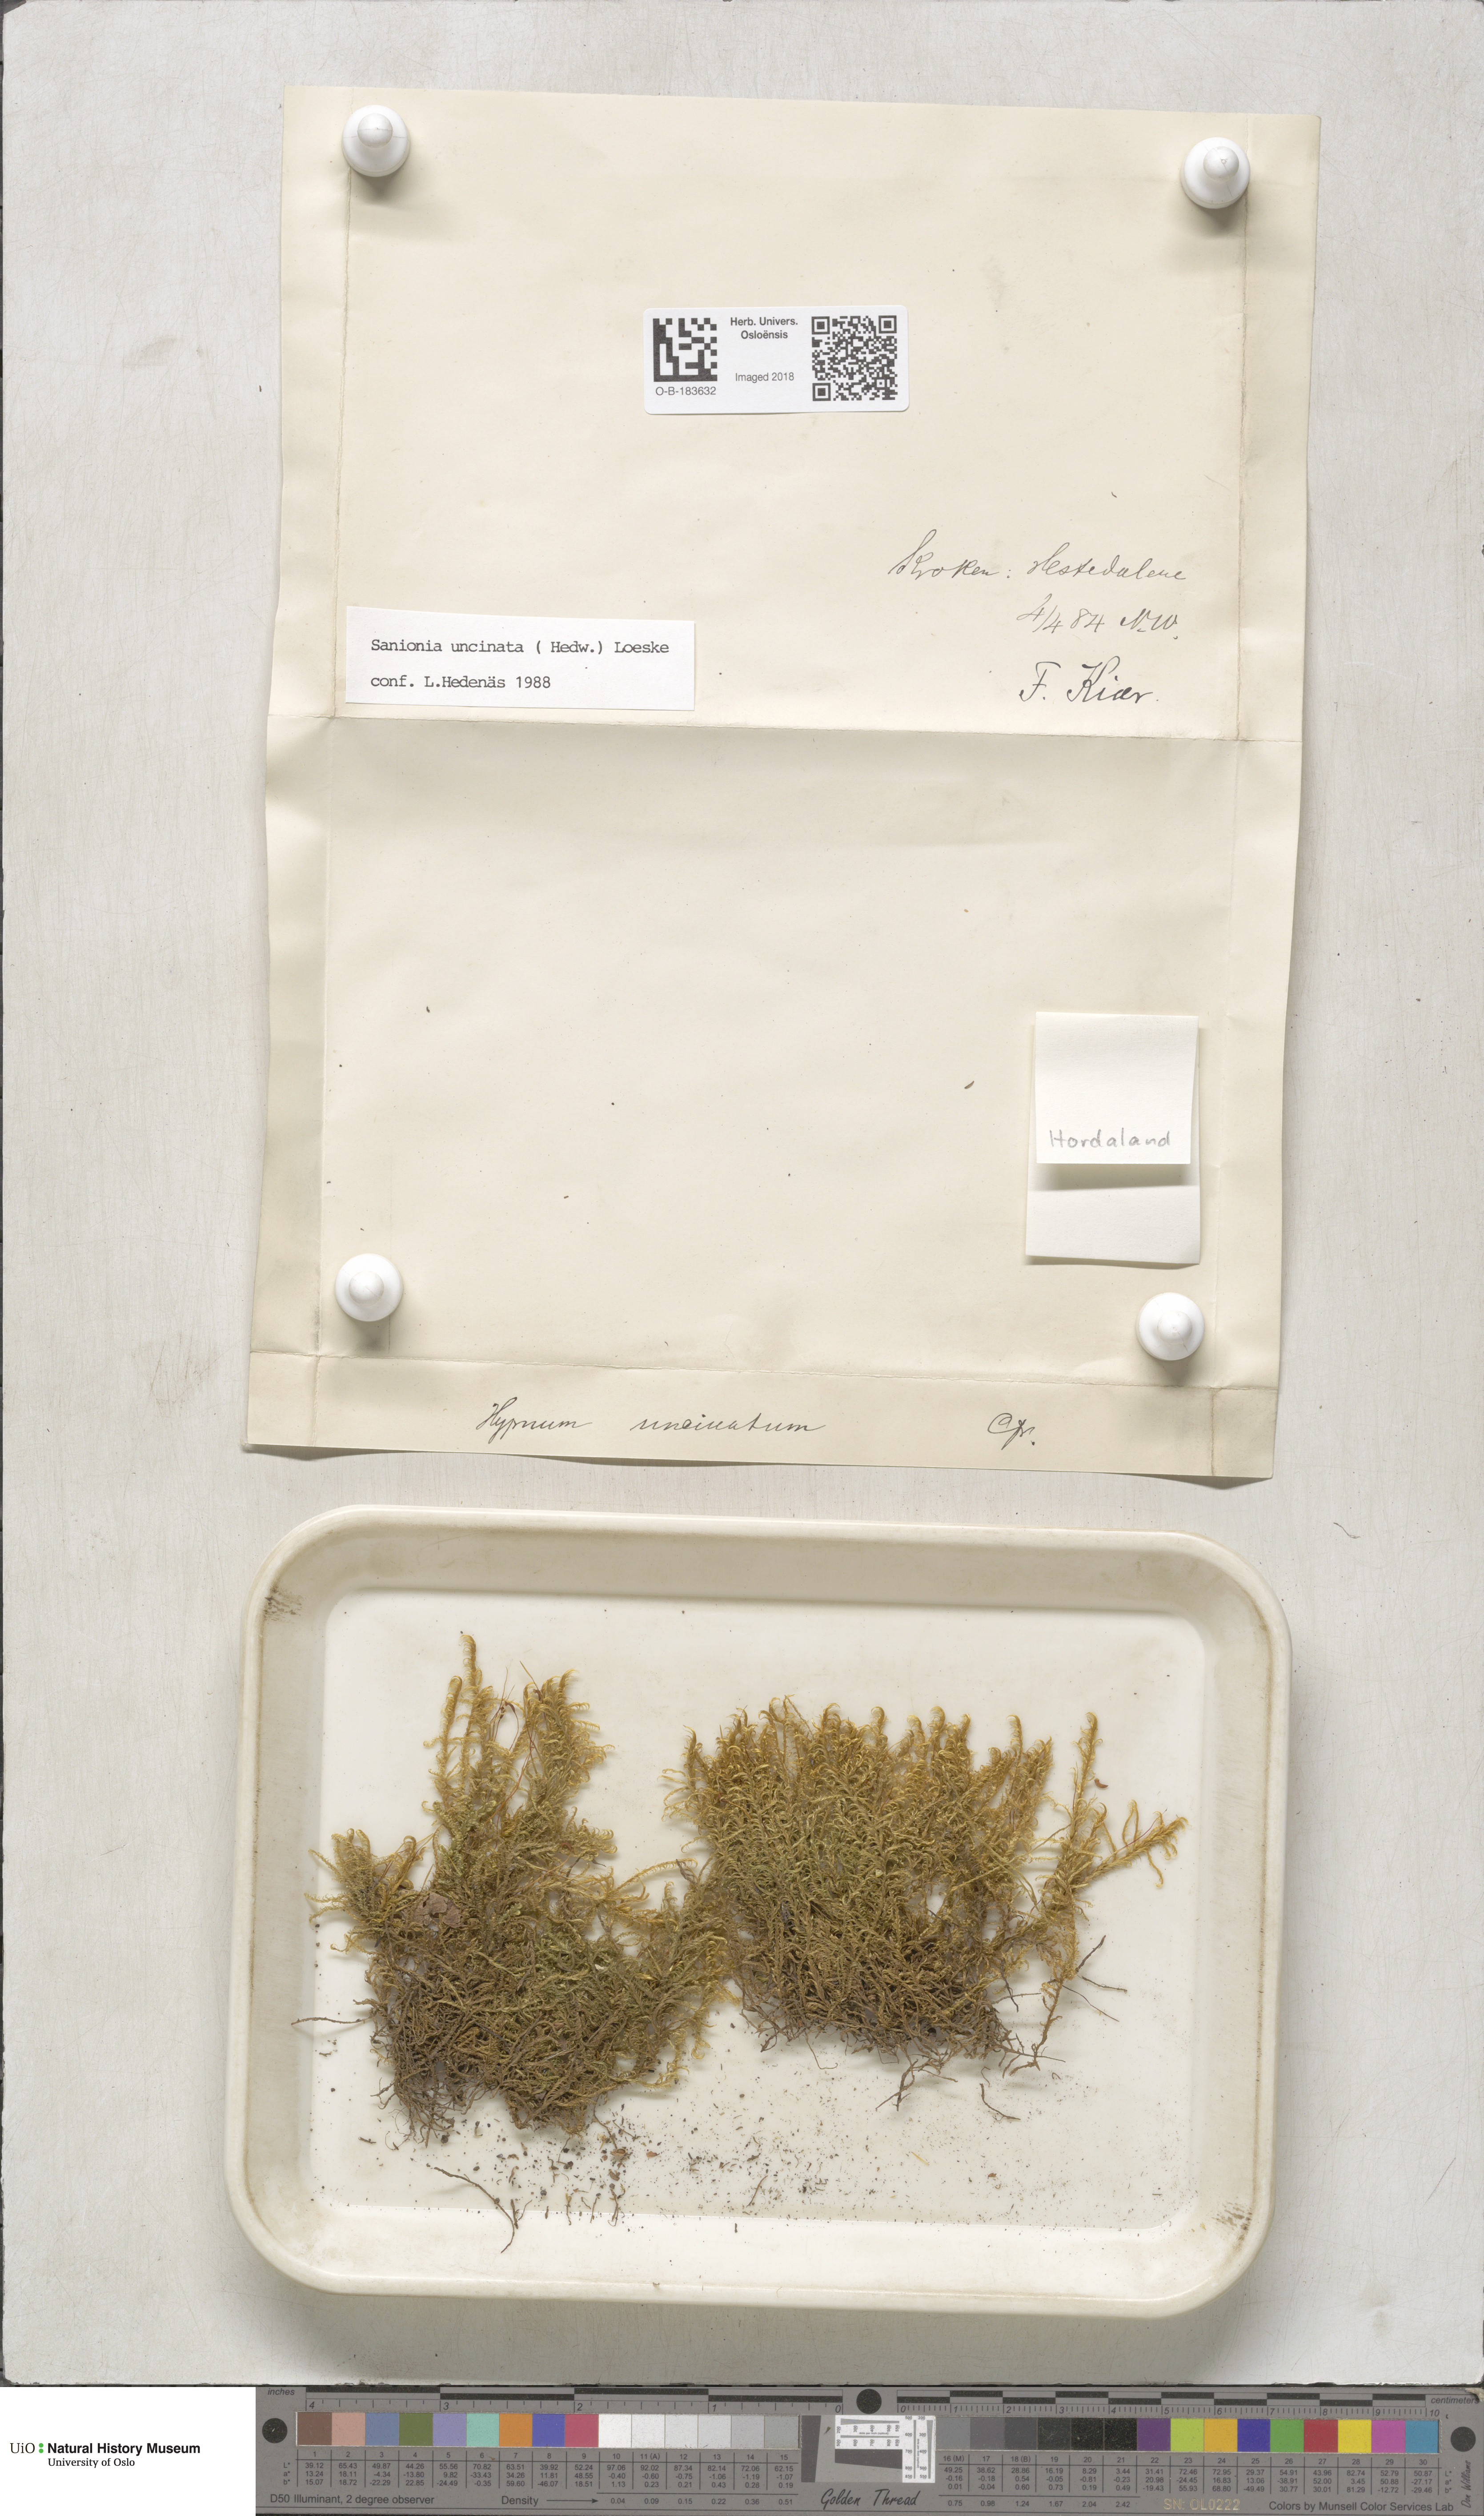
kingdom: Plantae
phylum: Bryophyta
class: Bryopsida
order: Hypnales
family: Scorpidiaceae
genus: Sanionia
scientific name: Sanionia uncinata
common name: Sickle moss
